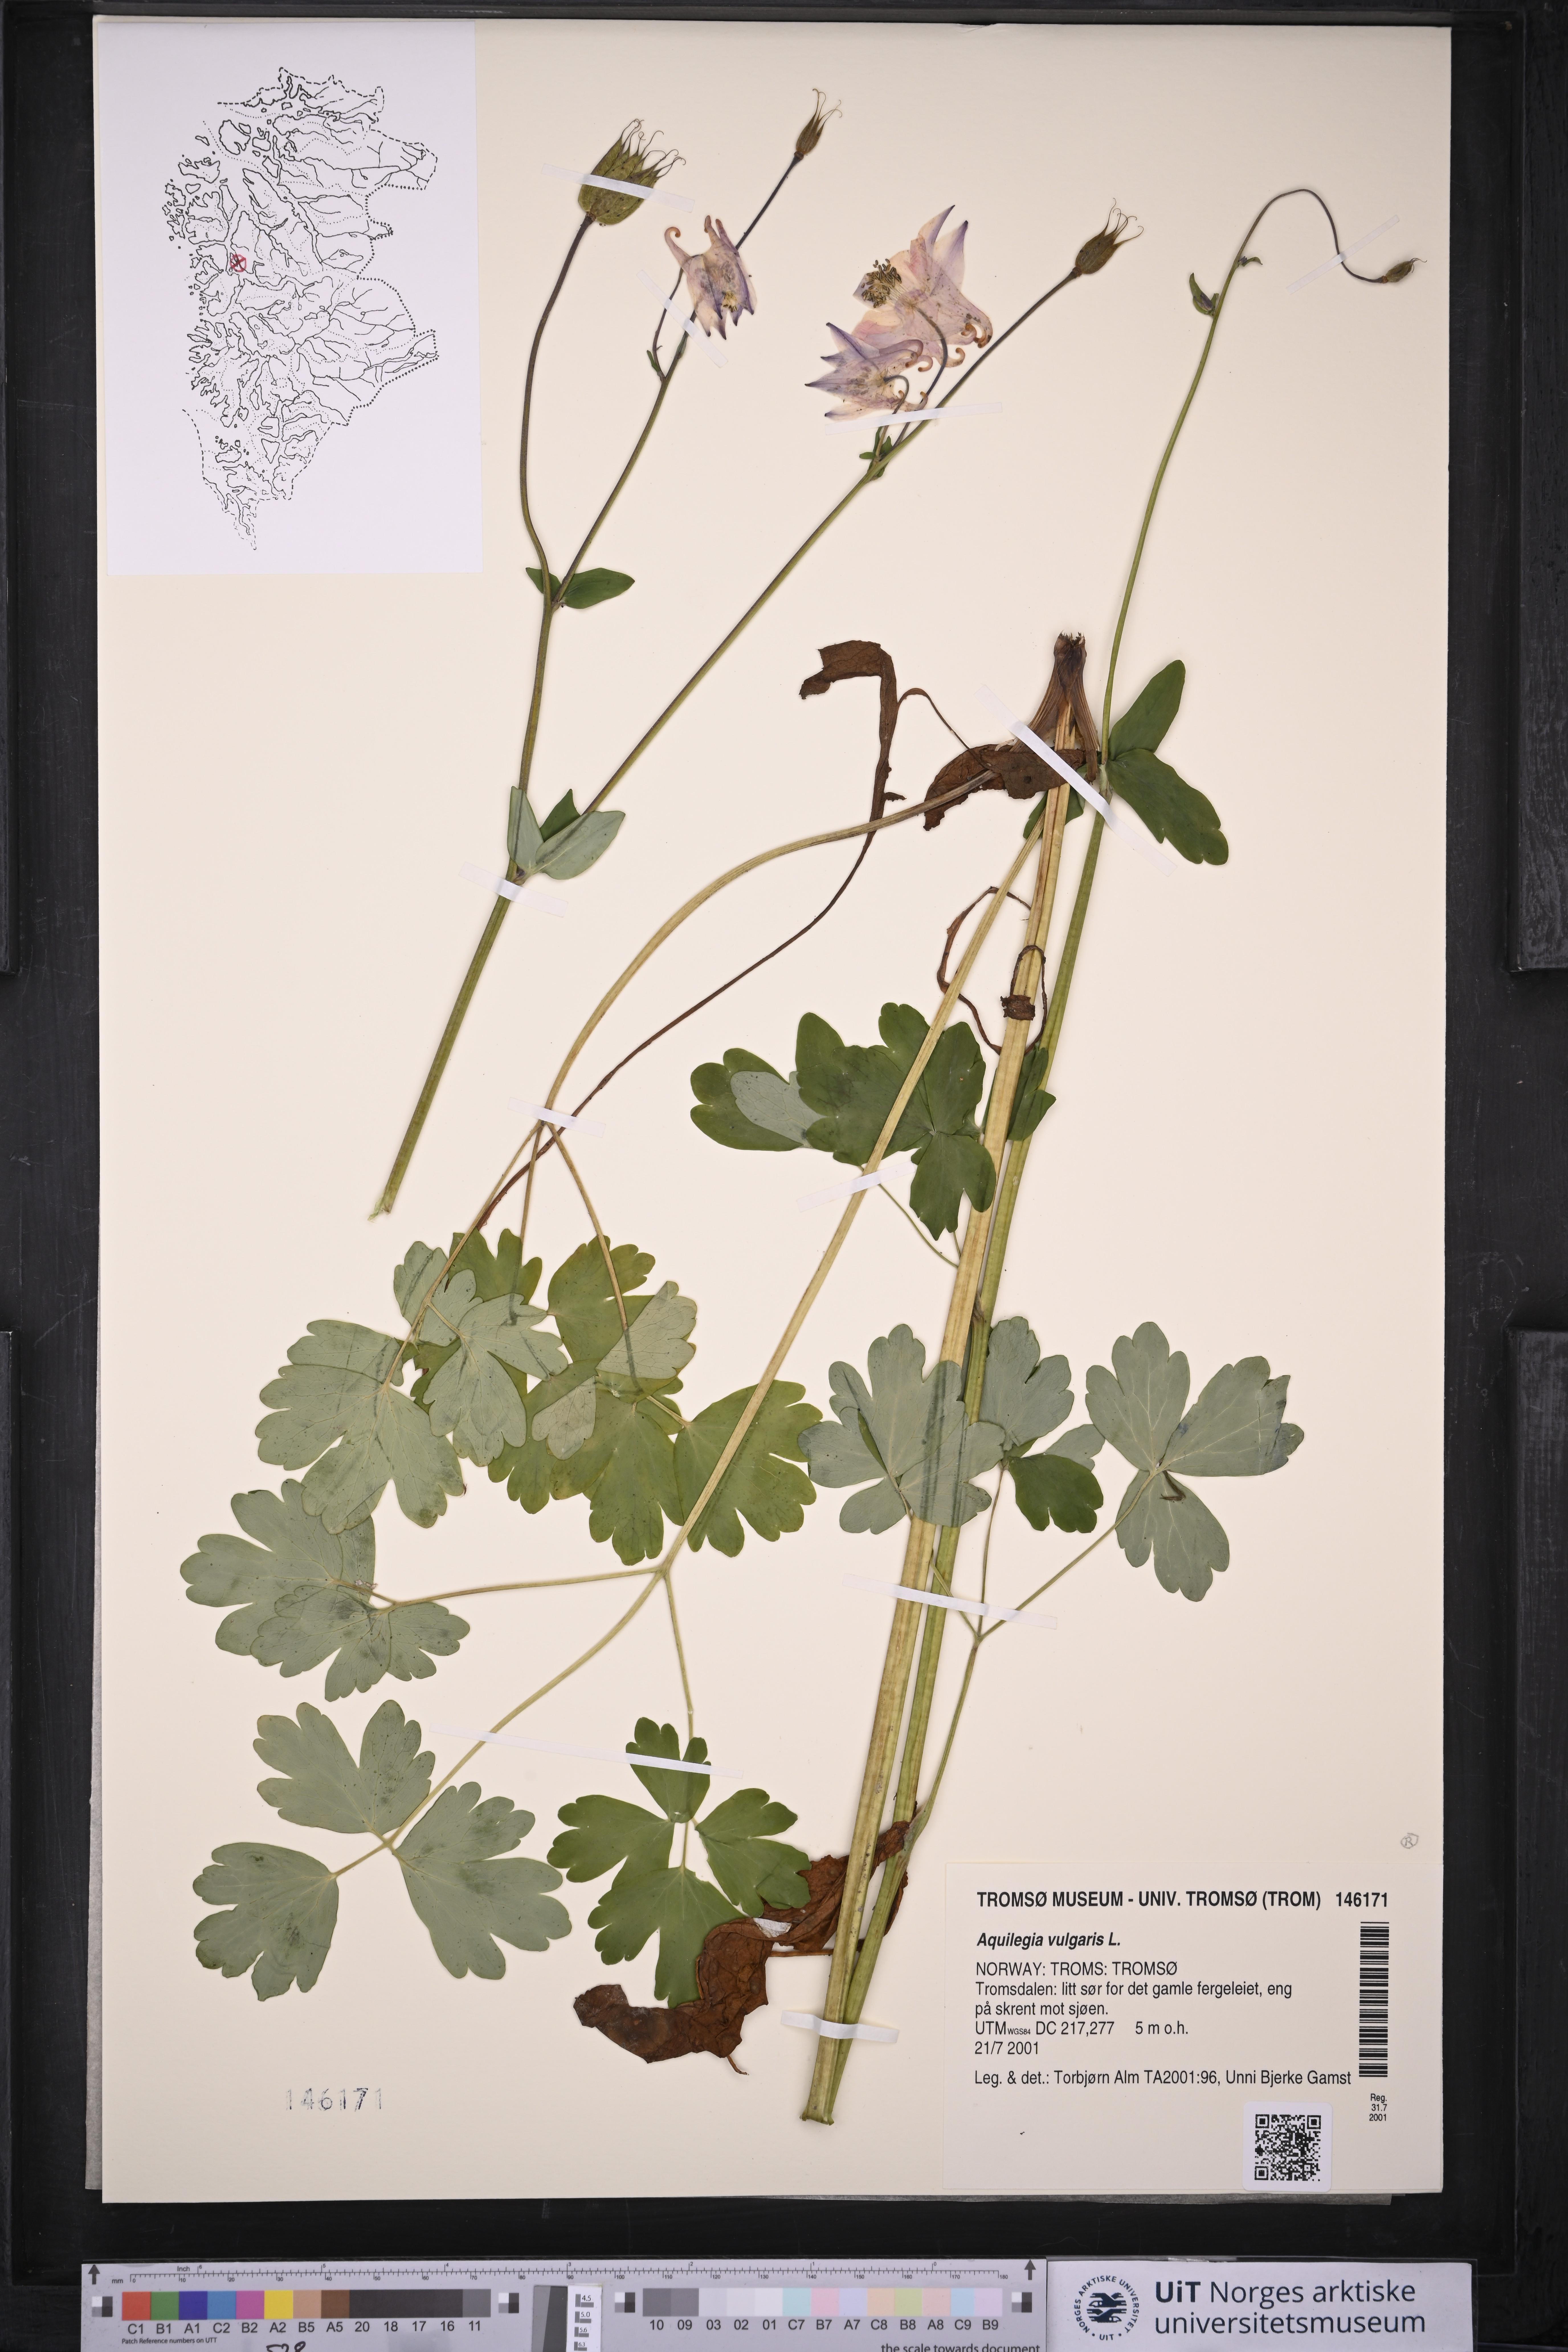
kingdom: Plantae
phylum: Tracheophyta
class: Magnoliopsida
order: Ranunculales
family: Ranunculaceae
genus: Aquilegia
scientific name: Aquilegia vulgaris
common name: Columbine
